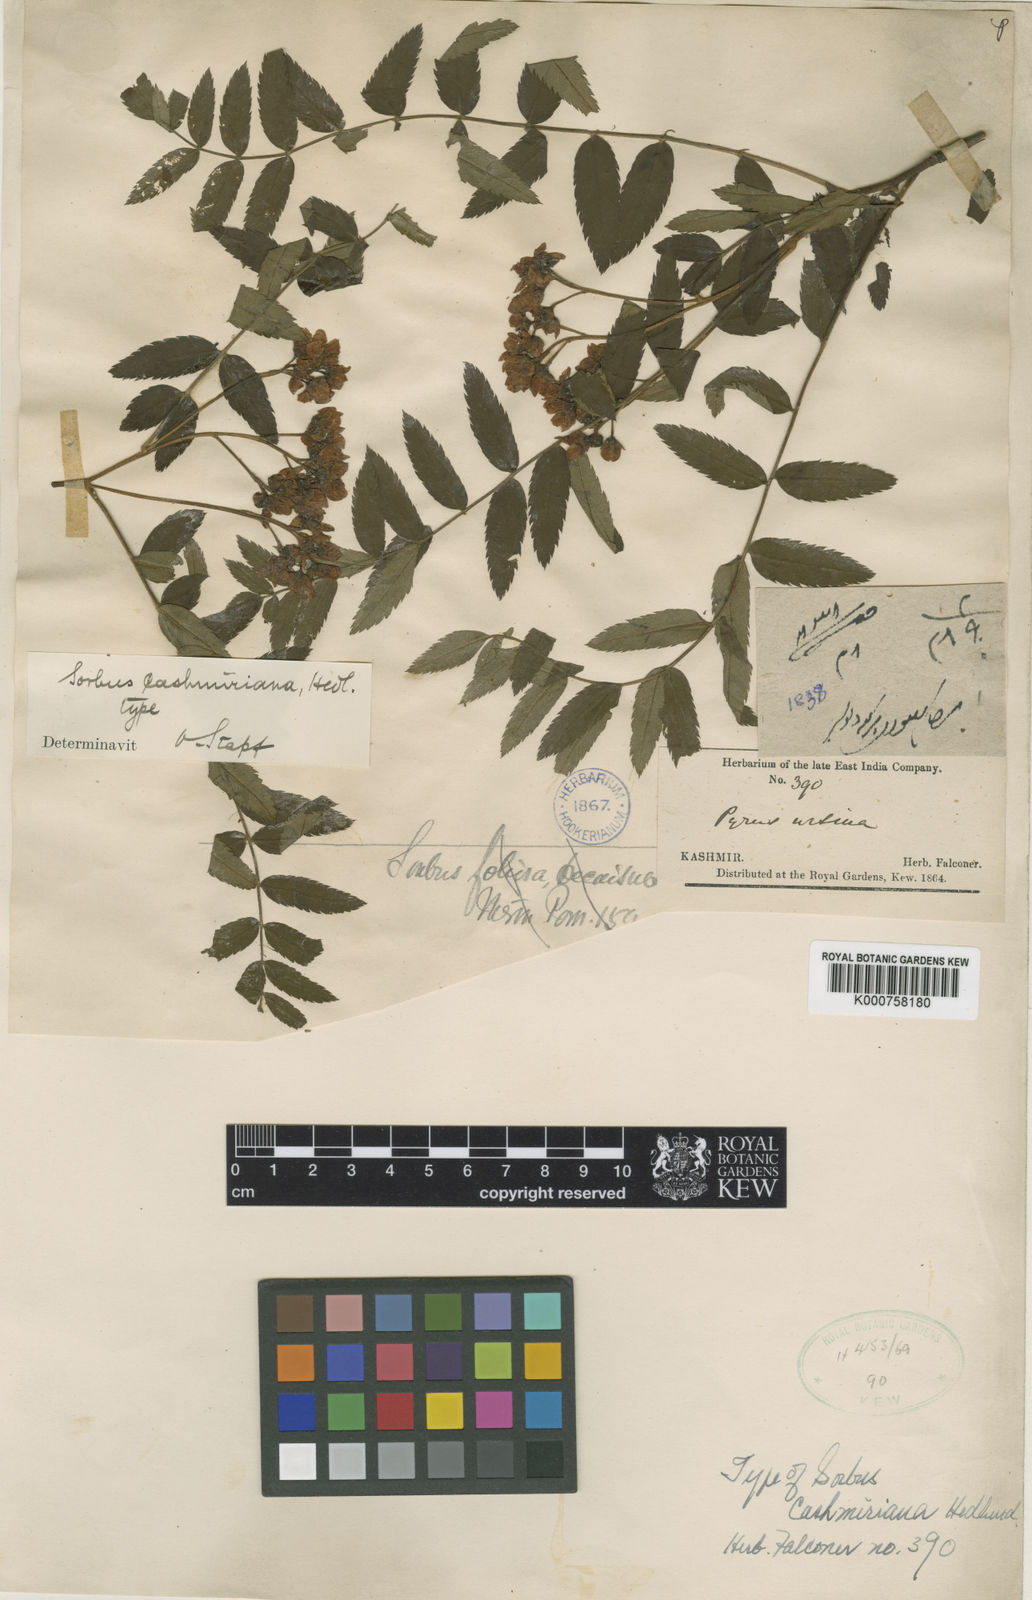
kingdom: Plantae
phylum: Tracheophyta
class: Magnoliopsida
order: Rosales
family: Rosaceae
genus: Sorbus
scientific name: Sorbus cashmiriana
